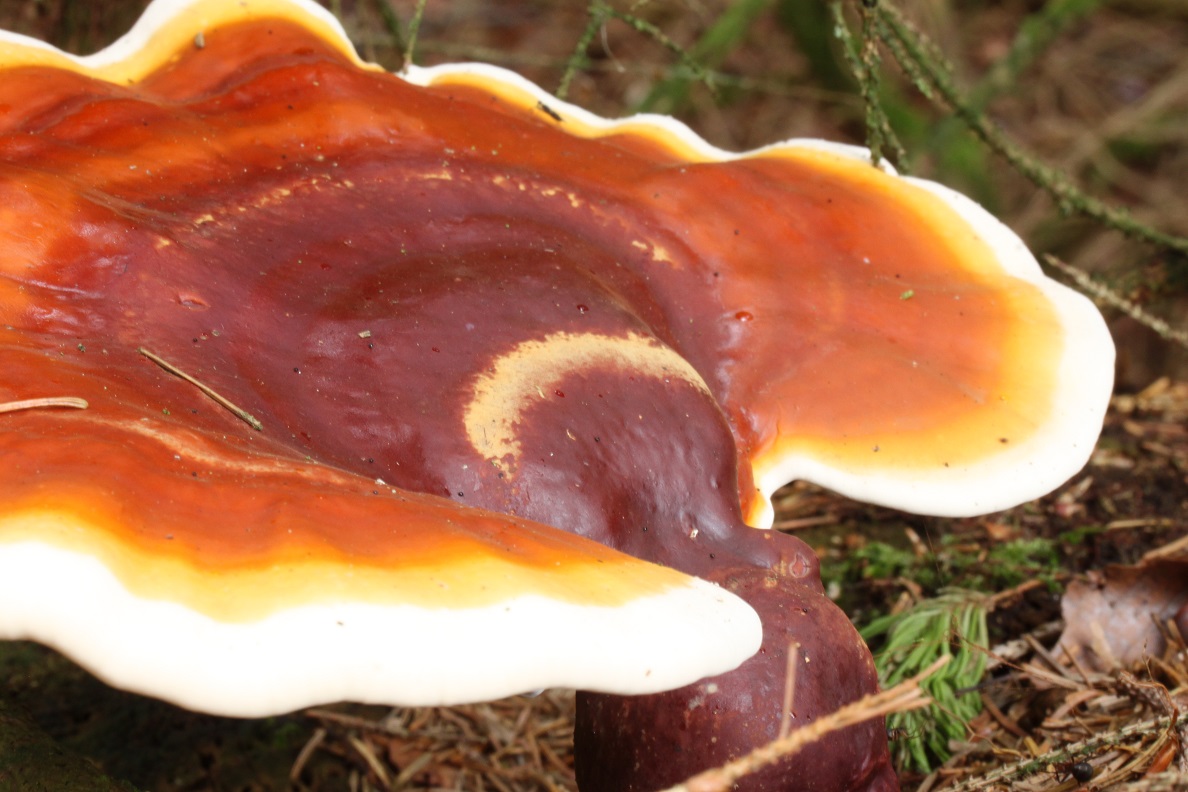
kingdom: Fungi
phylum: Basidiomycota
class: Agaricomycetes
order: Polyporales
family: Polyporaceae
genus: Ganoderma
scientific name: Ganoderma lucidum
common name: skinnende lakporesvamp
